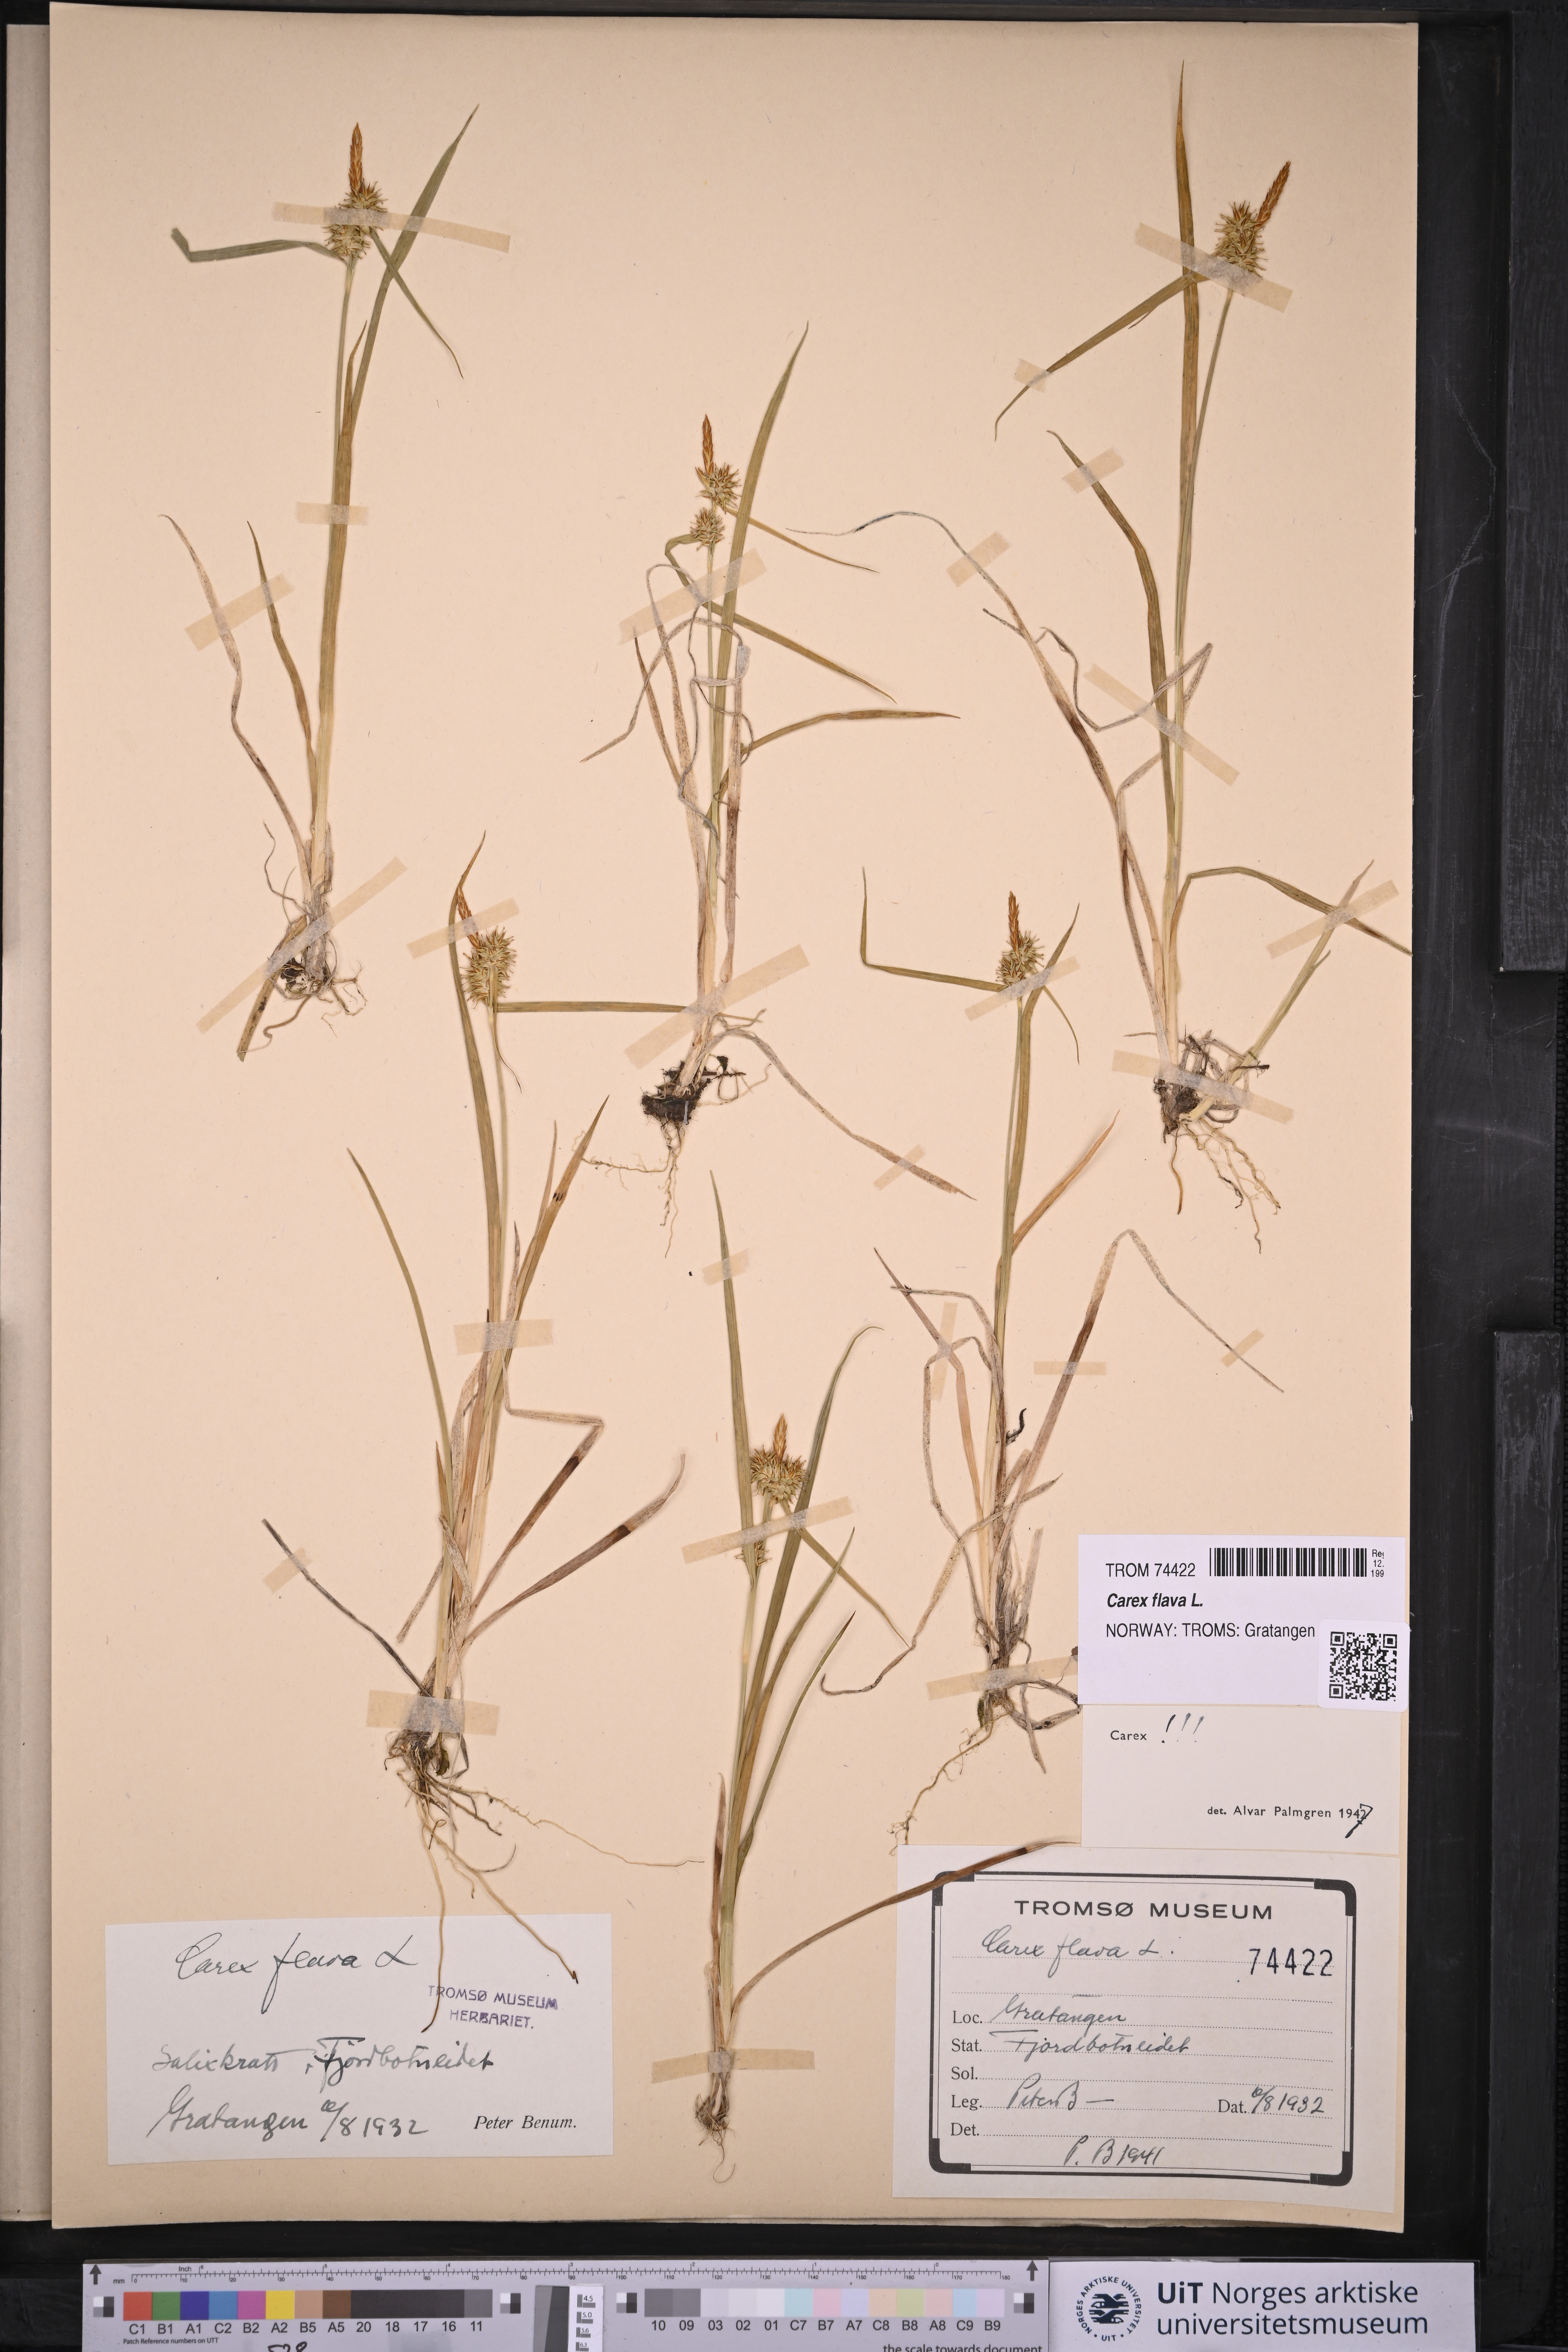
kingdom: Plantae
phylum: Tracheophyta
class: Liliopsida
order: Poales
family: Cyperaceae
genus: Carex
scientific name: Carex flava
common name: Large yellow-sedge
